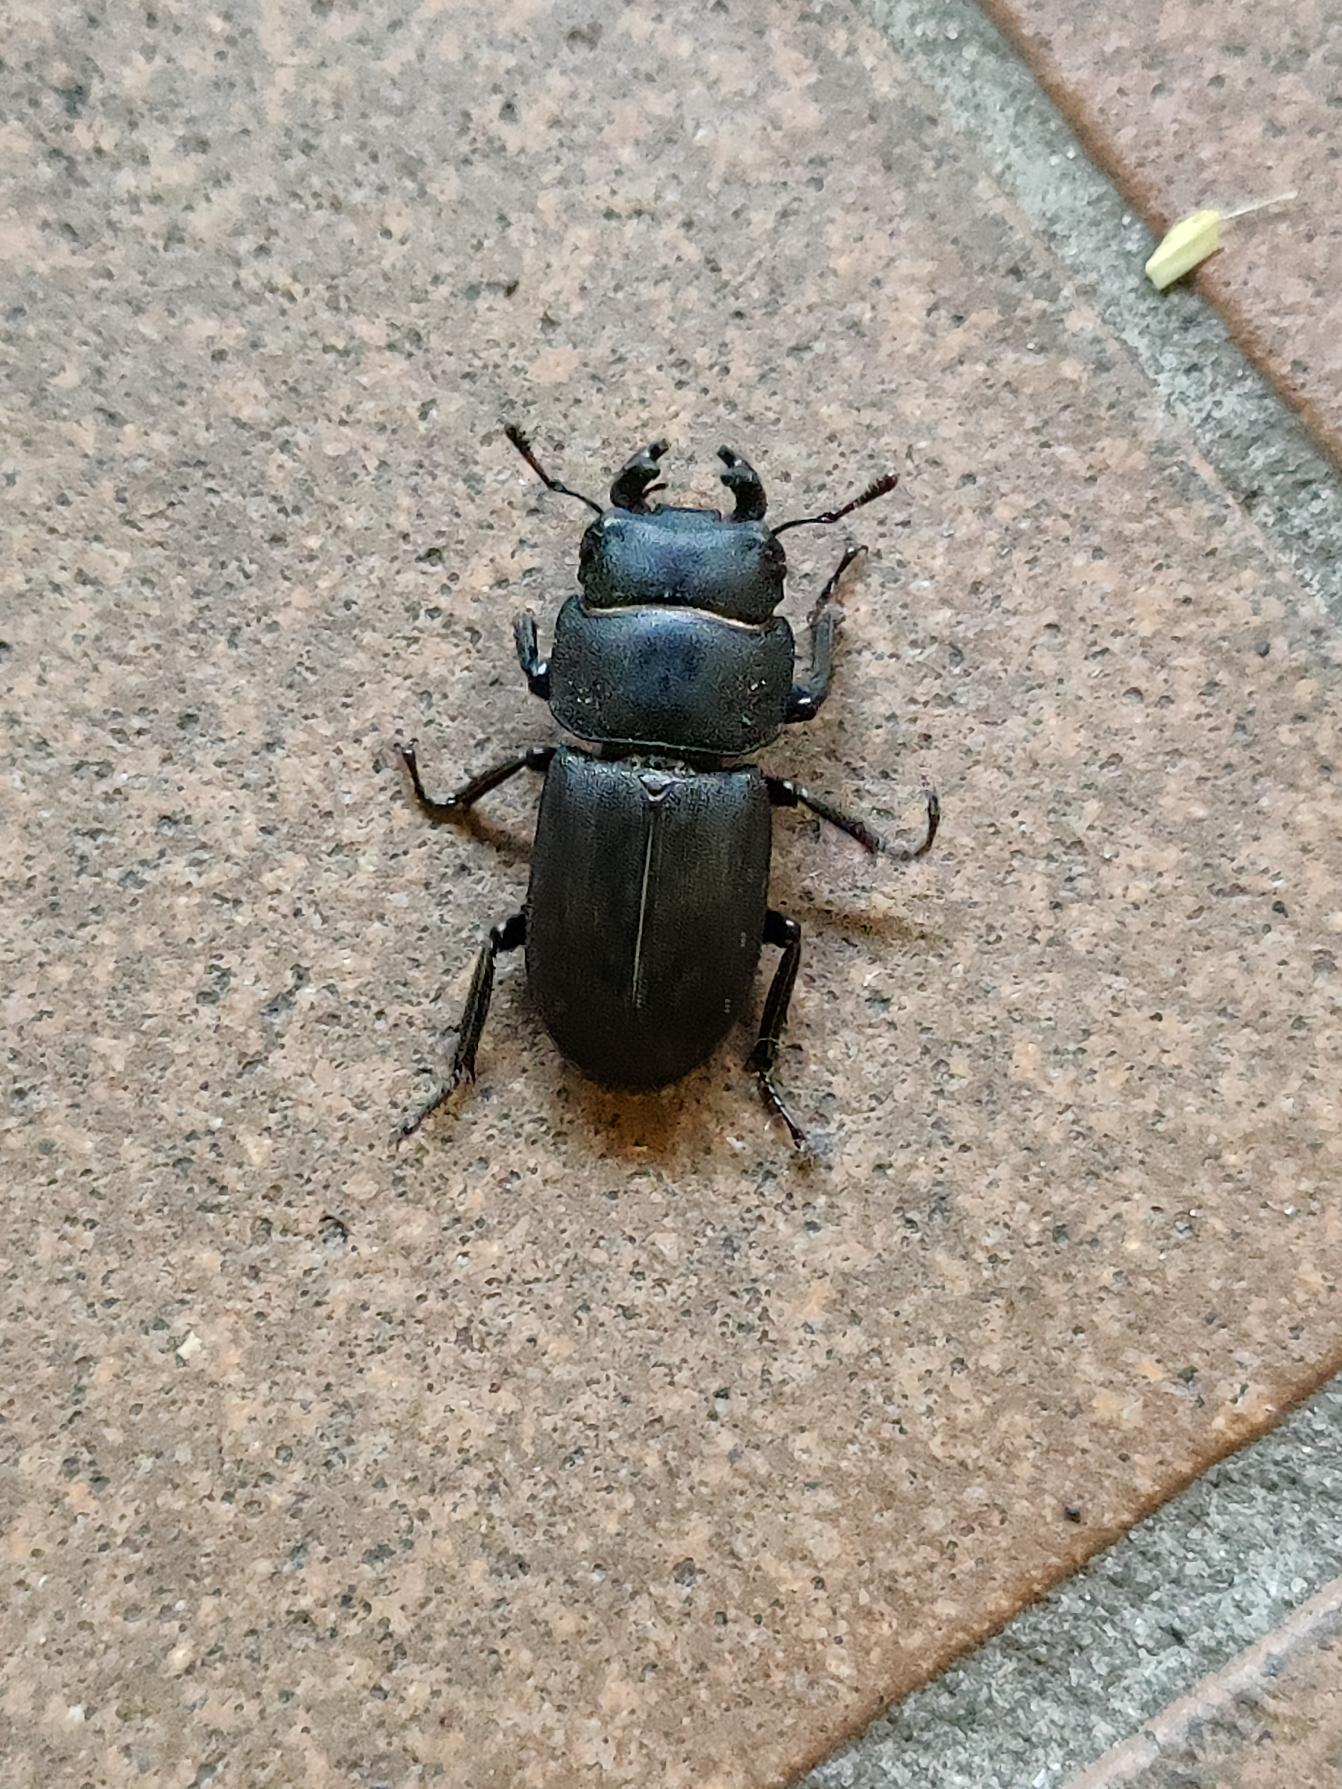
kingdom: Animalia
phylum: Arthropoda
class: Insecta
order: Coleoptera
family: Lucanidae
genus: Dorcus
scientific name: Dorcus parallelipipedus
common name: Bøghjort
